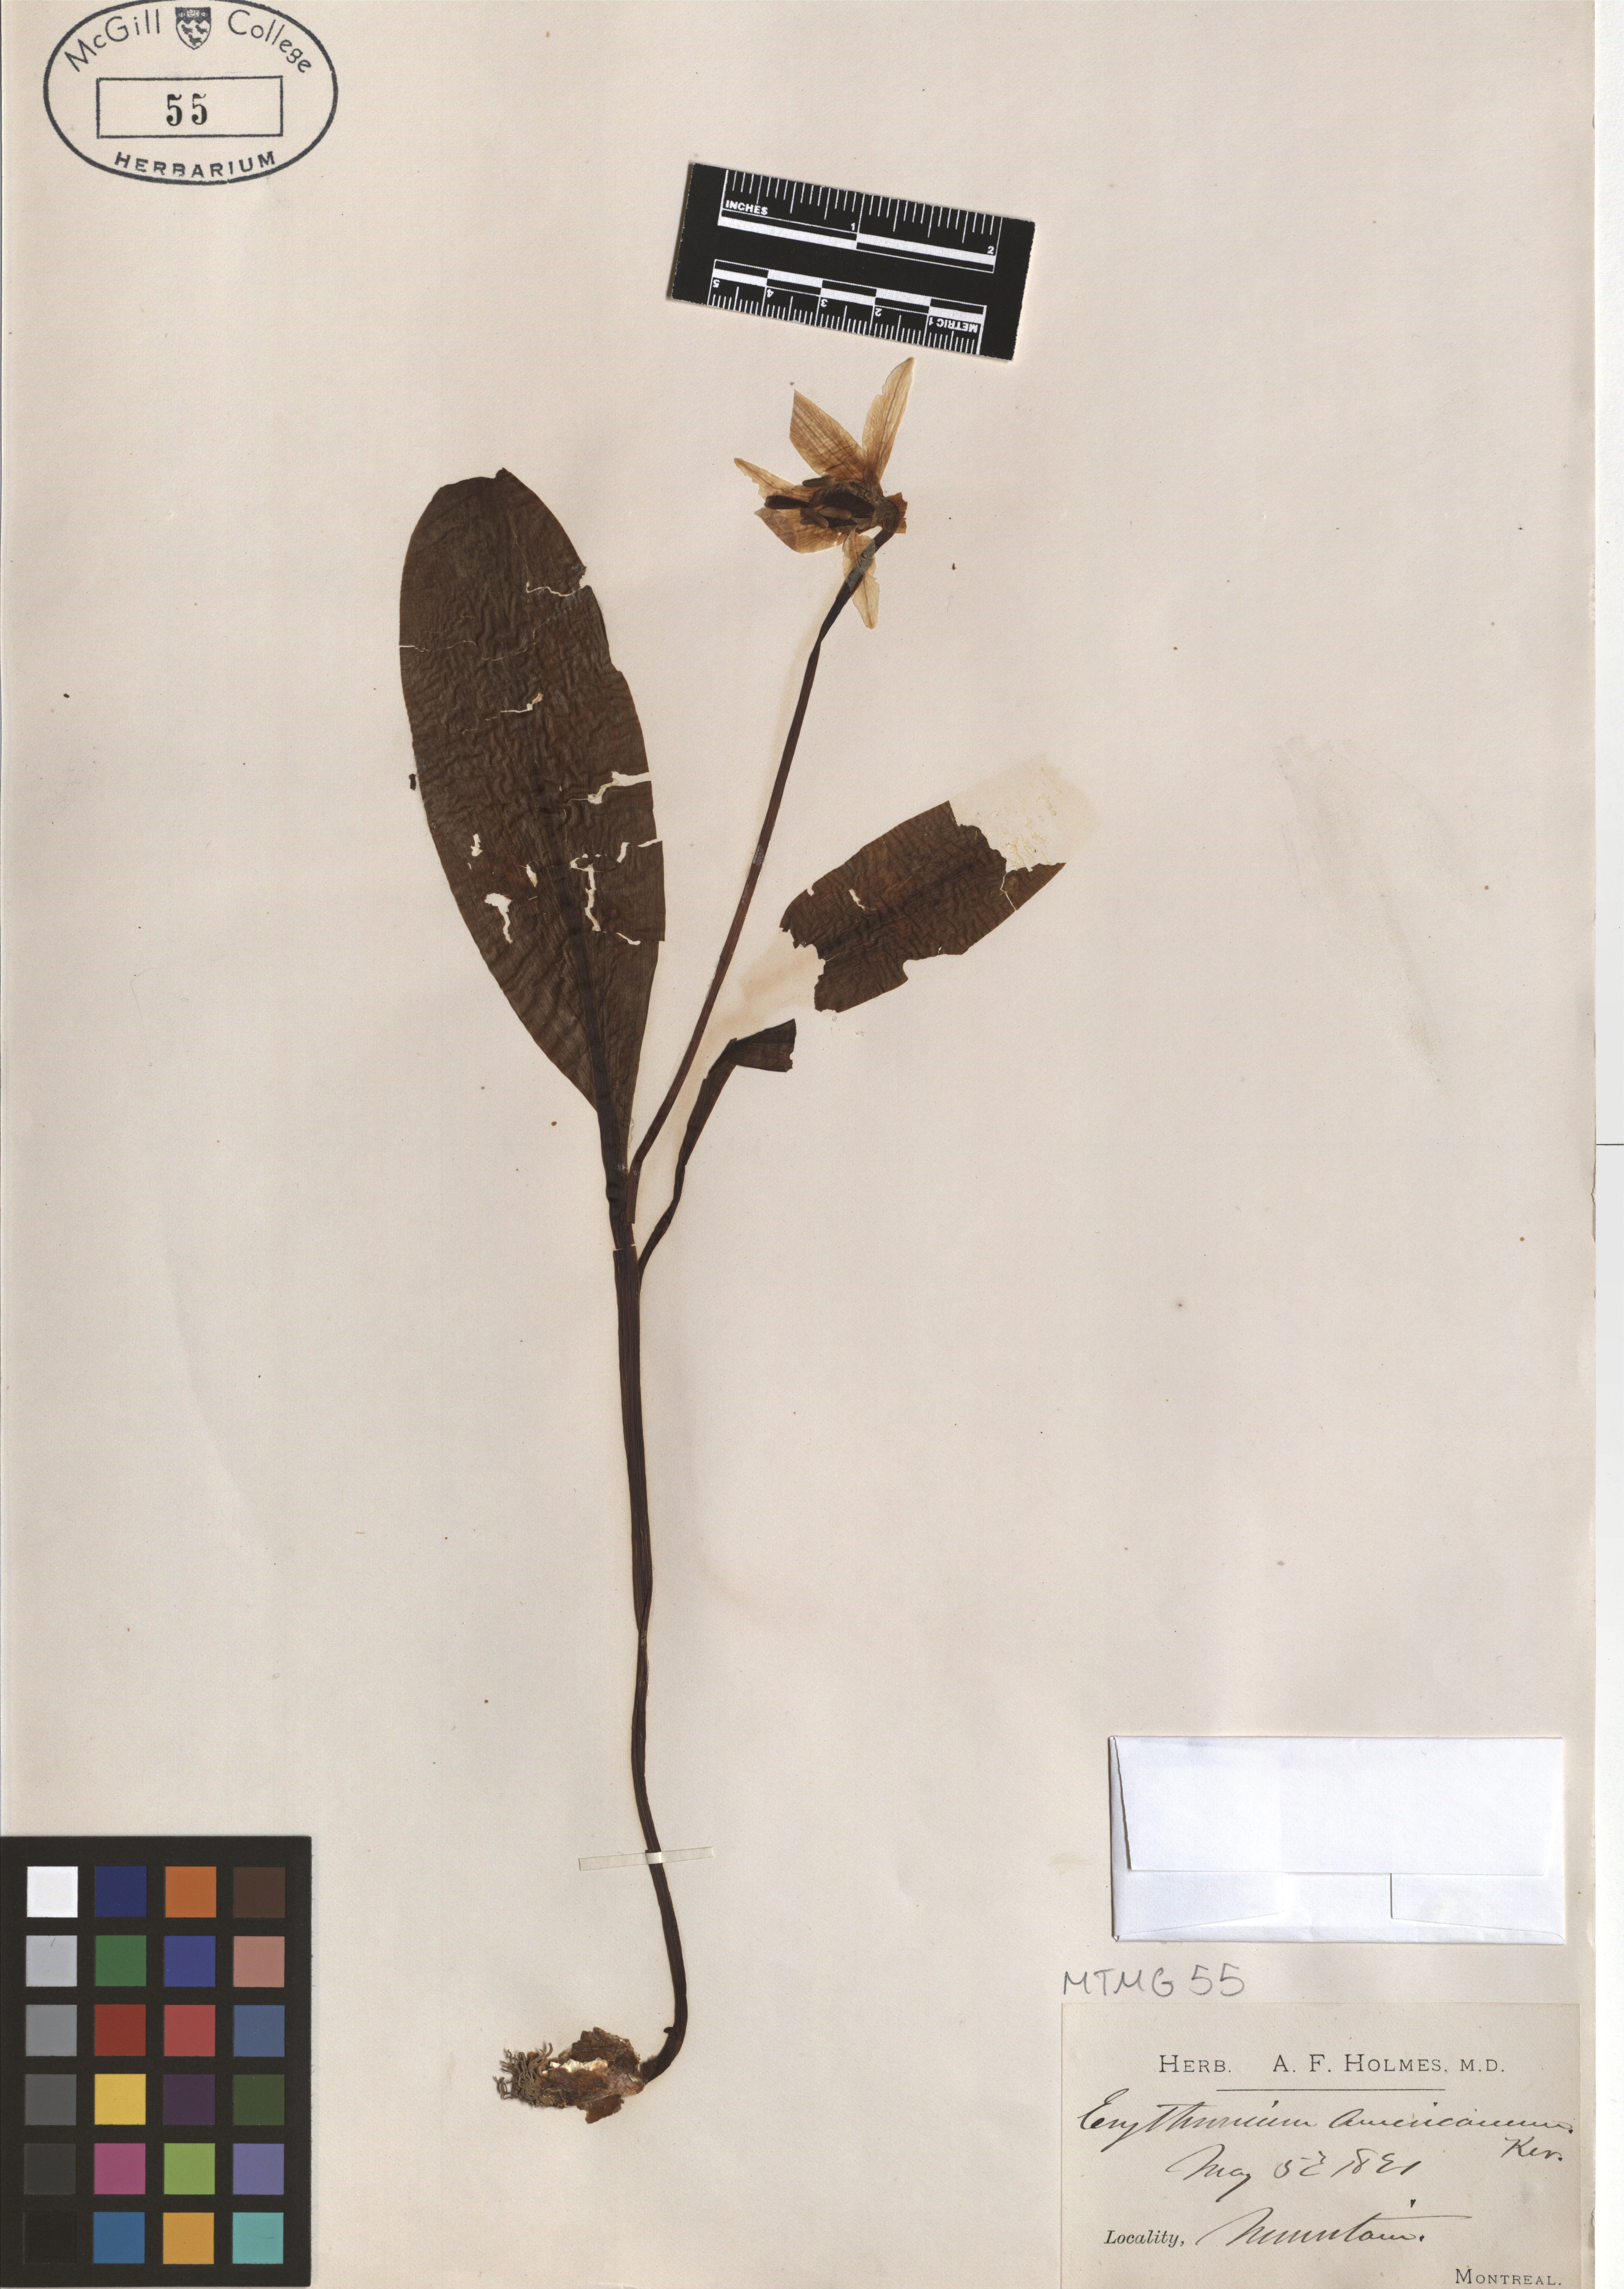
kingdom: Plantae
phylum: Tracheophyta
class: Liliopsida
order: Liliales
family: Liliaceae
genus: Erythronium
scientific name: Erythronium americanum
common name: Yellow adder's-tongue
